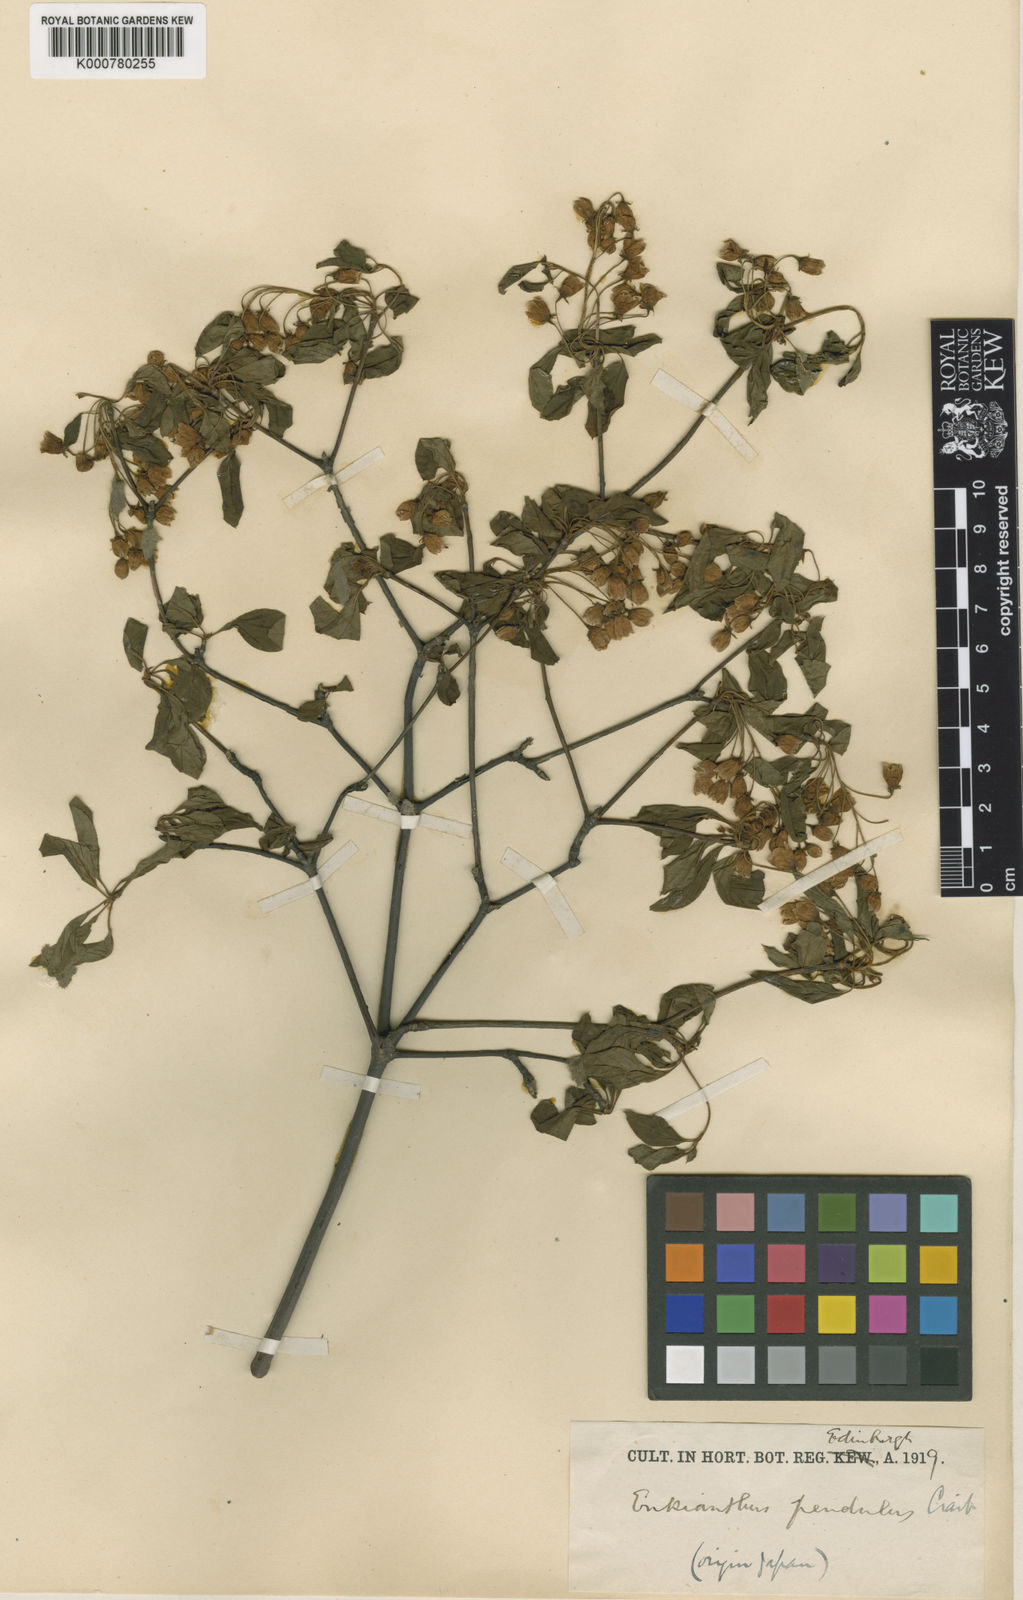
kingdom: Plantae
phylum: Tracheophyta
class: Magnoliopsida
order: Ericales
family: Ericaceae
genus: Enkianthus
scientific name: Enkianthus campanulatus
